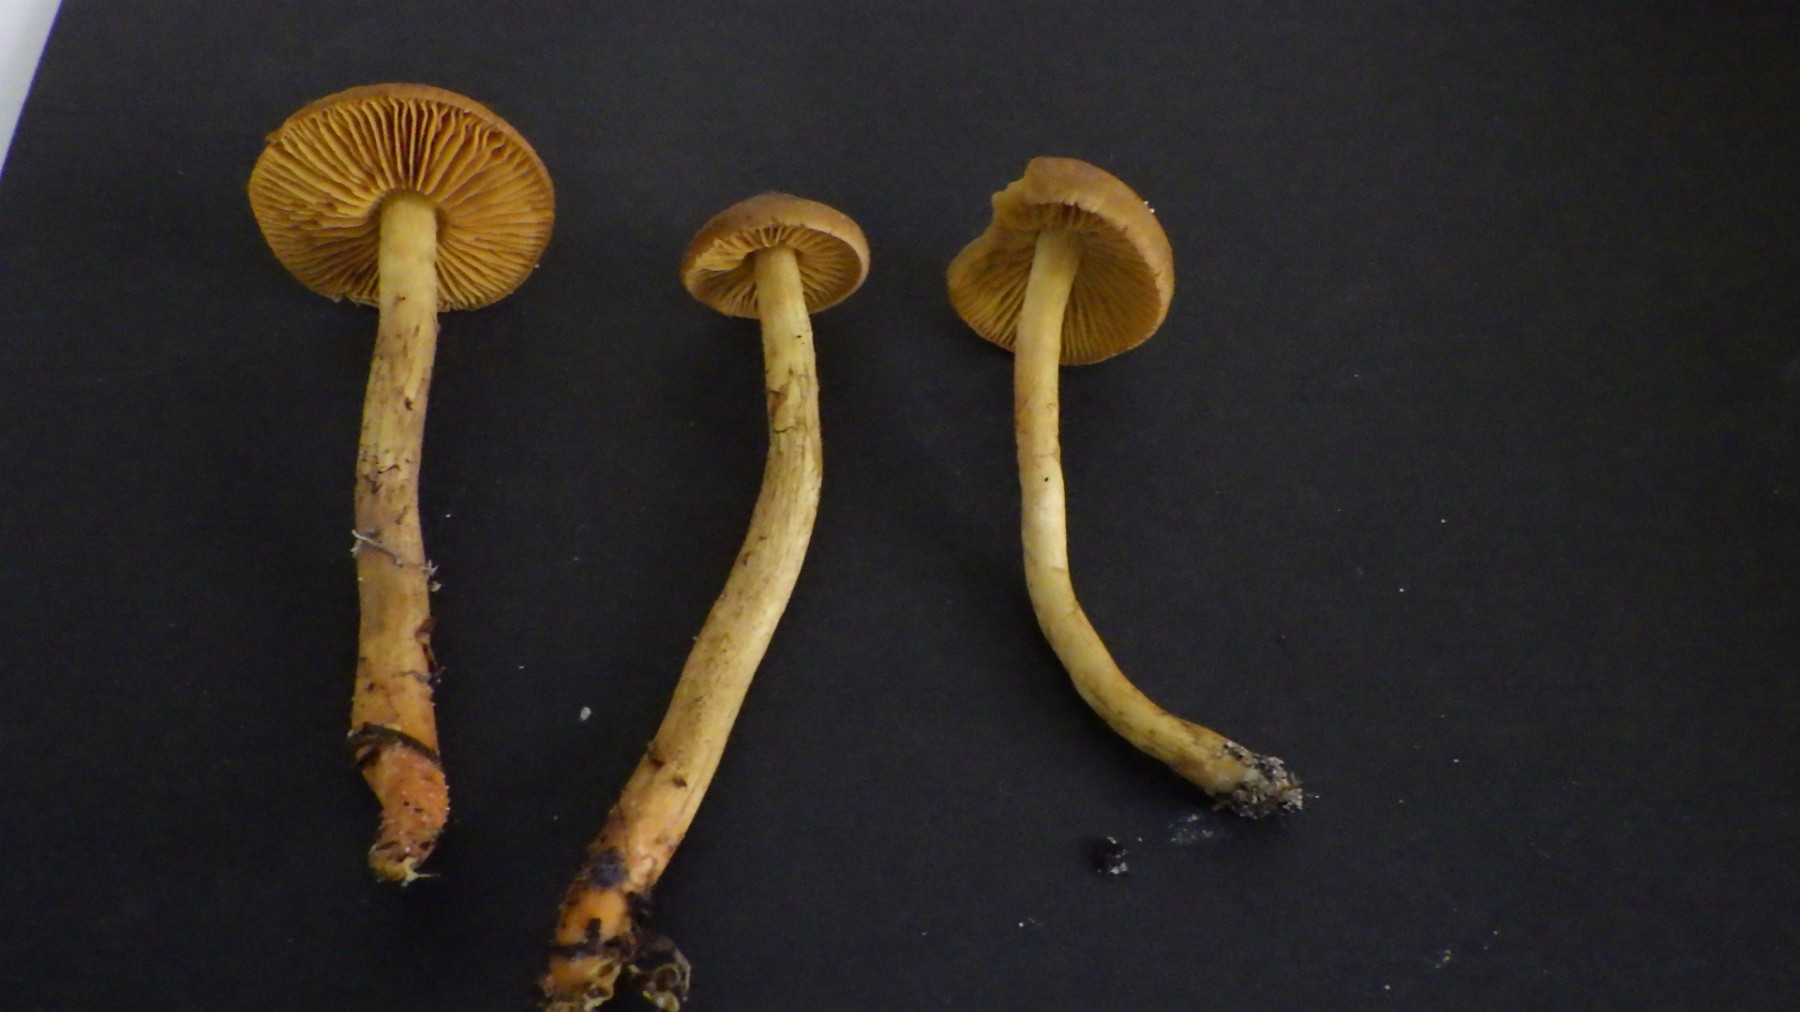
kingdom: Fungi
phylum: Basidiomycota
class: Agaricomycetes
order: Agaricales
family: Cortinariaceae
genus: Cortinarius
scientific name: Cortinarius bataillei
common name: orangefodet slørhat
